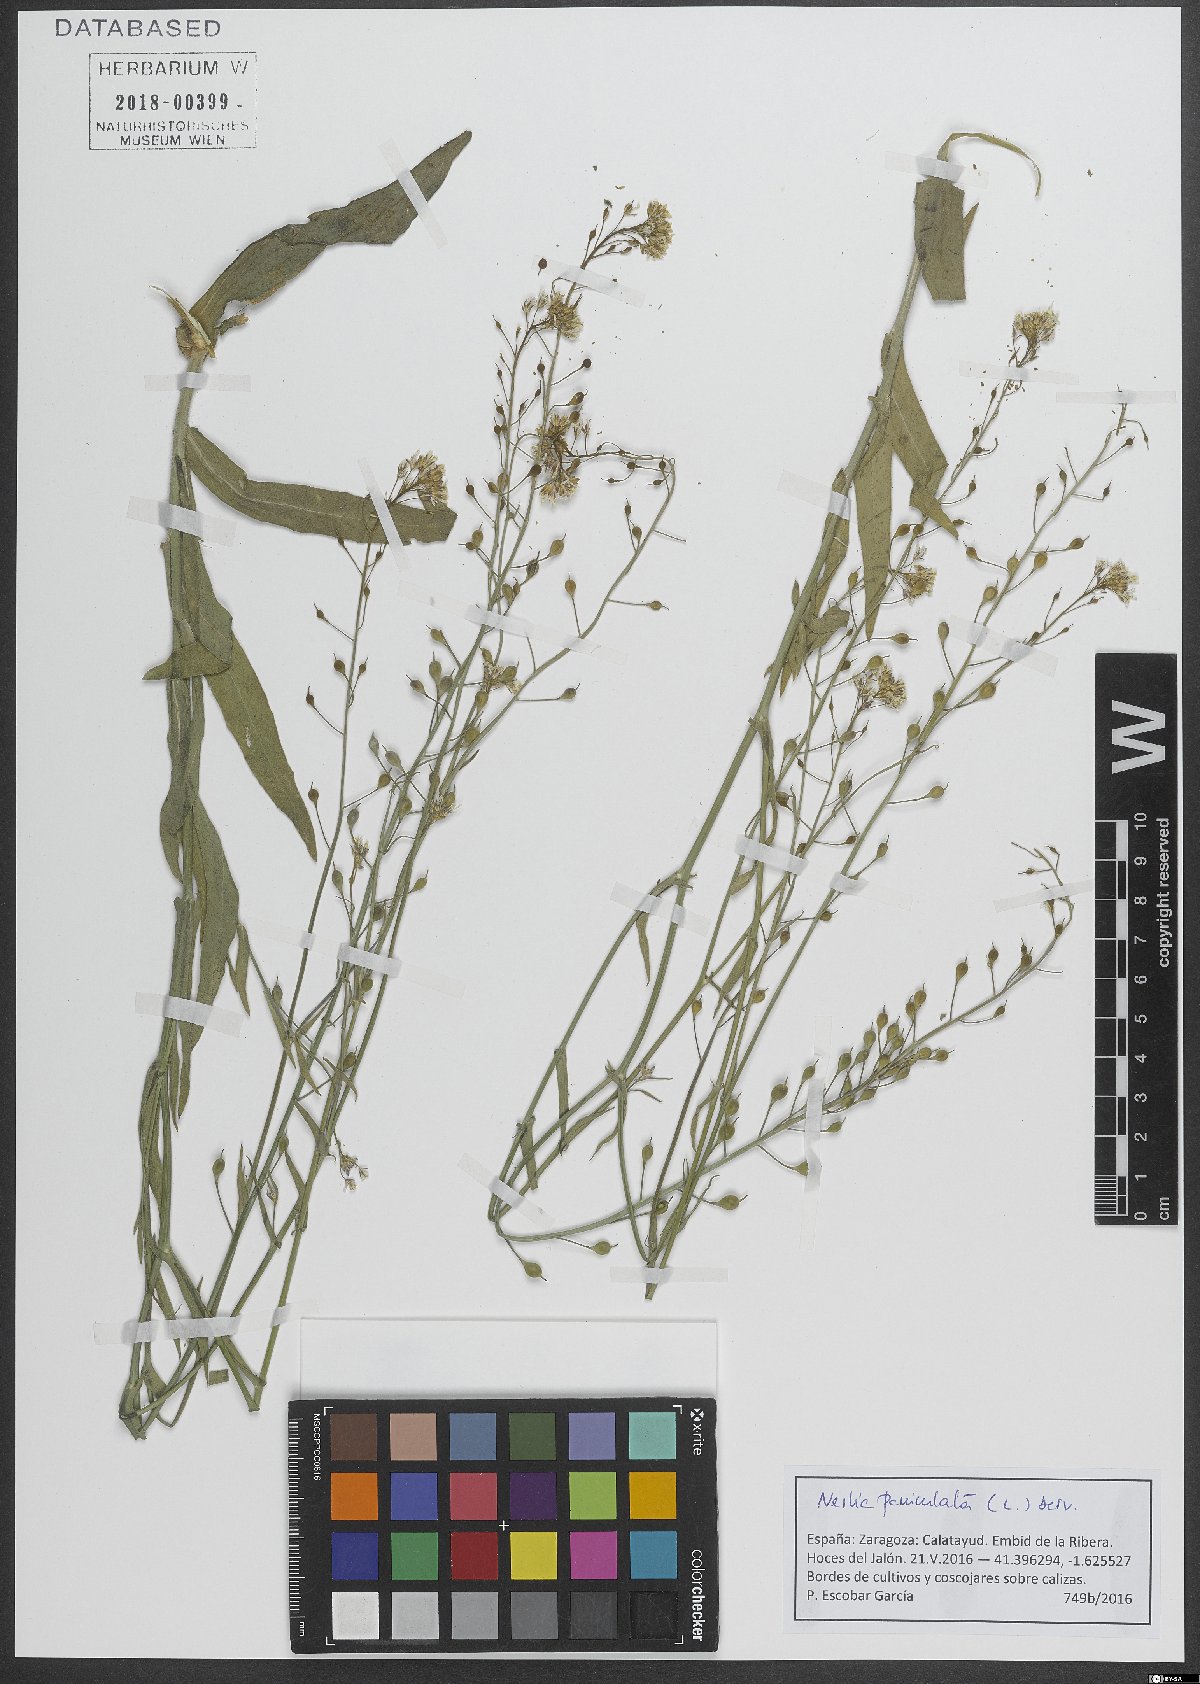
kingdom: Plantae
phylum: Tracheophyta
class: Magnoliopsida
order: Brassicales
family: Brassicaceae
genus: Neslia
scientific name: Neslia paniculata
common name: Ball mustard
